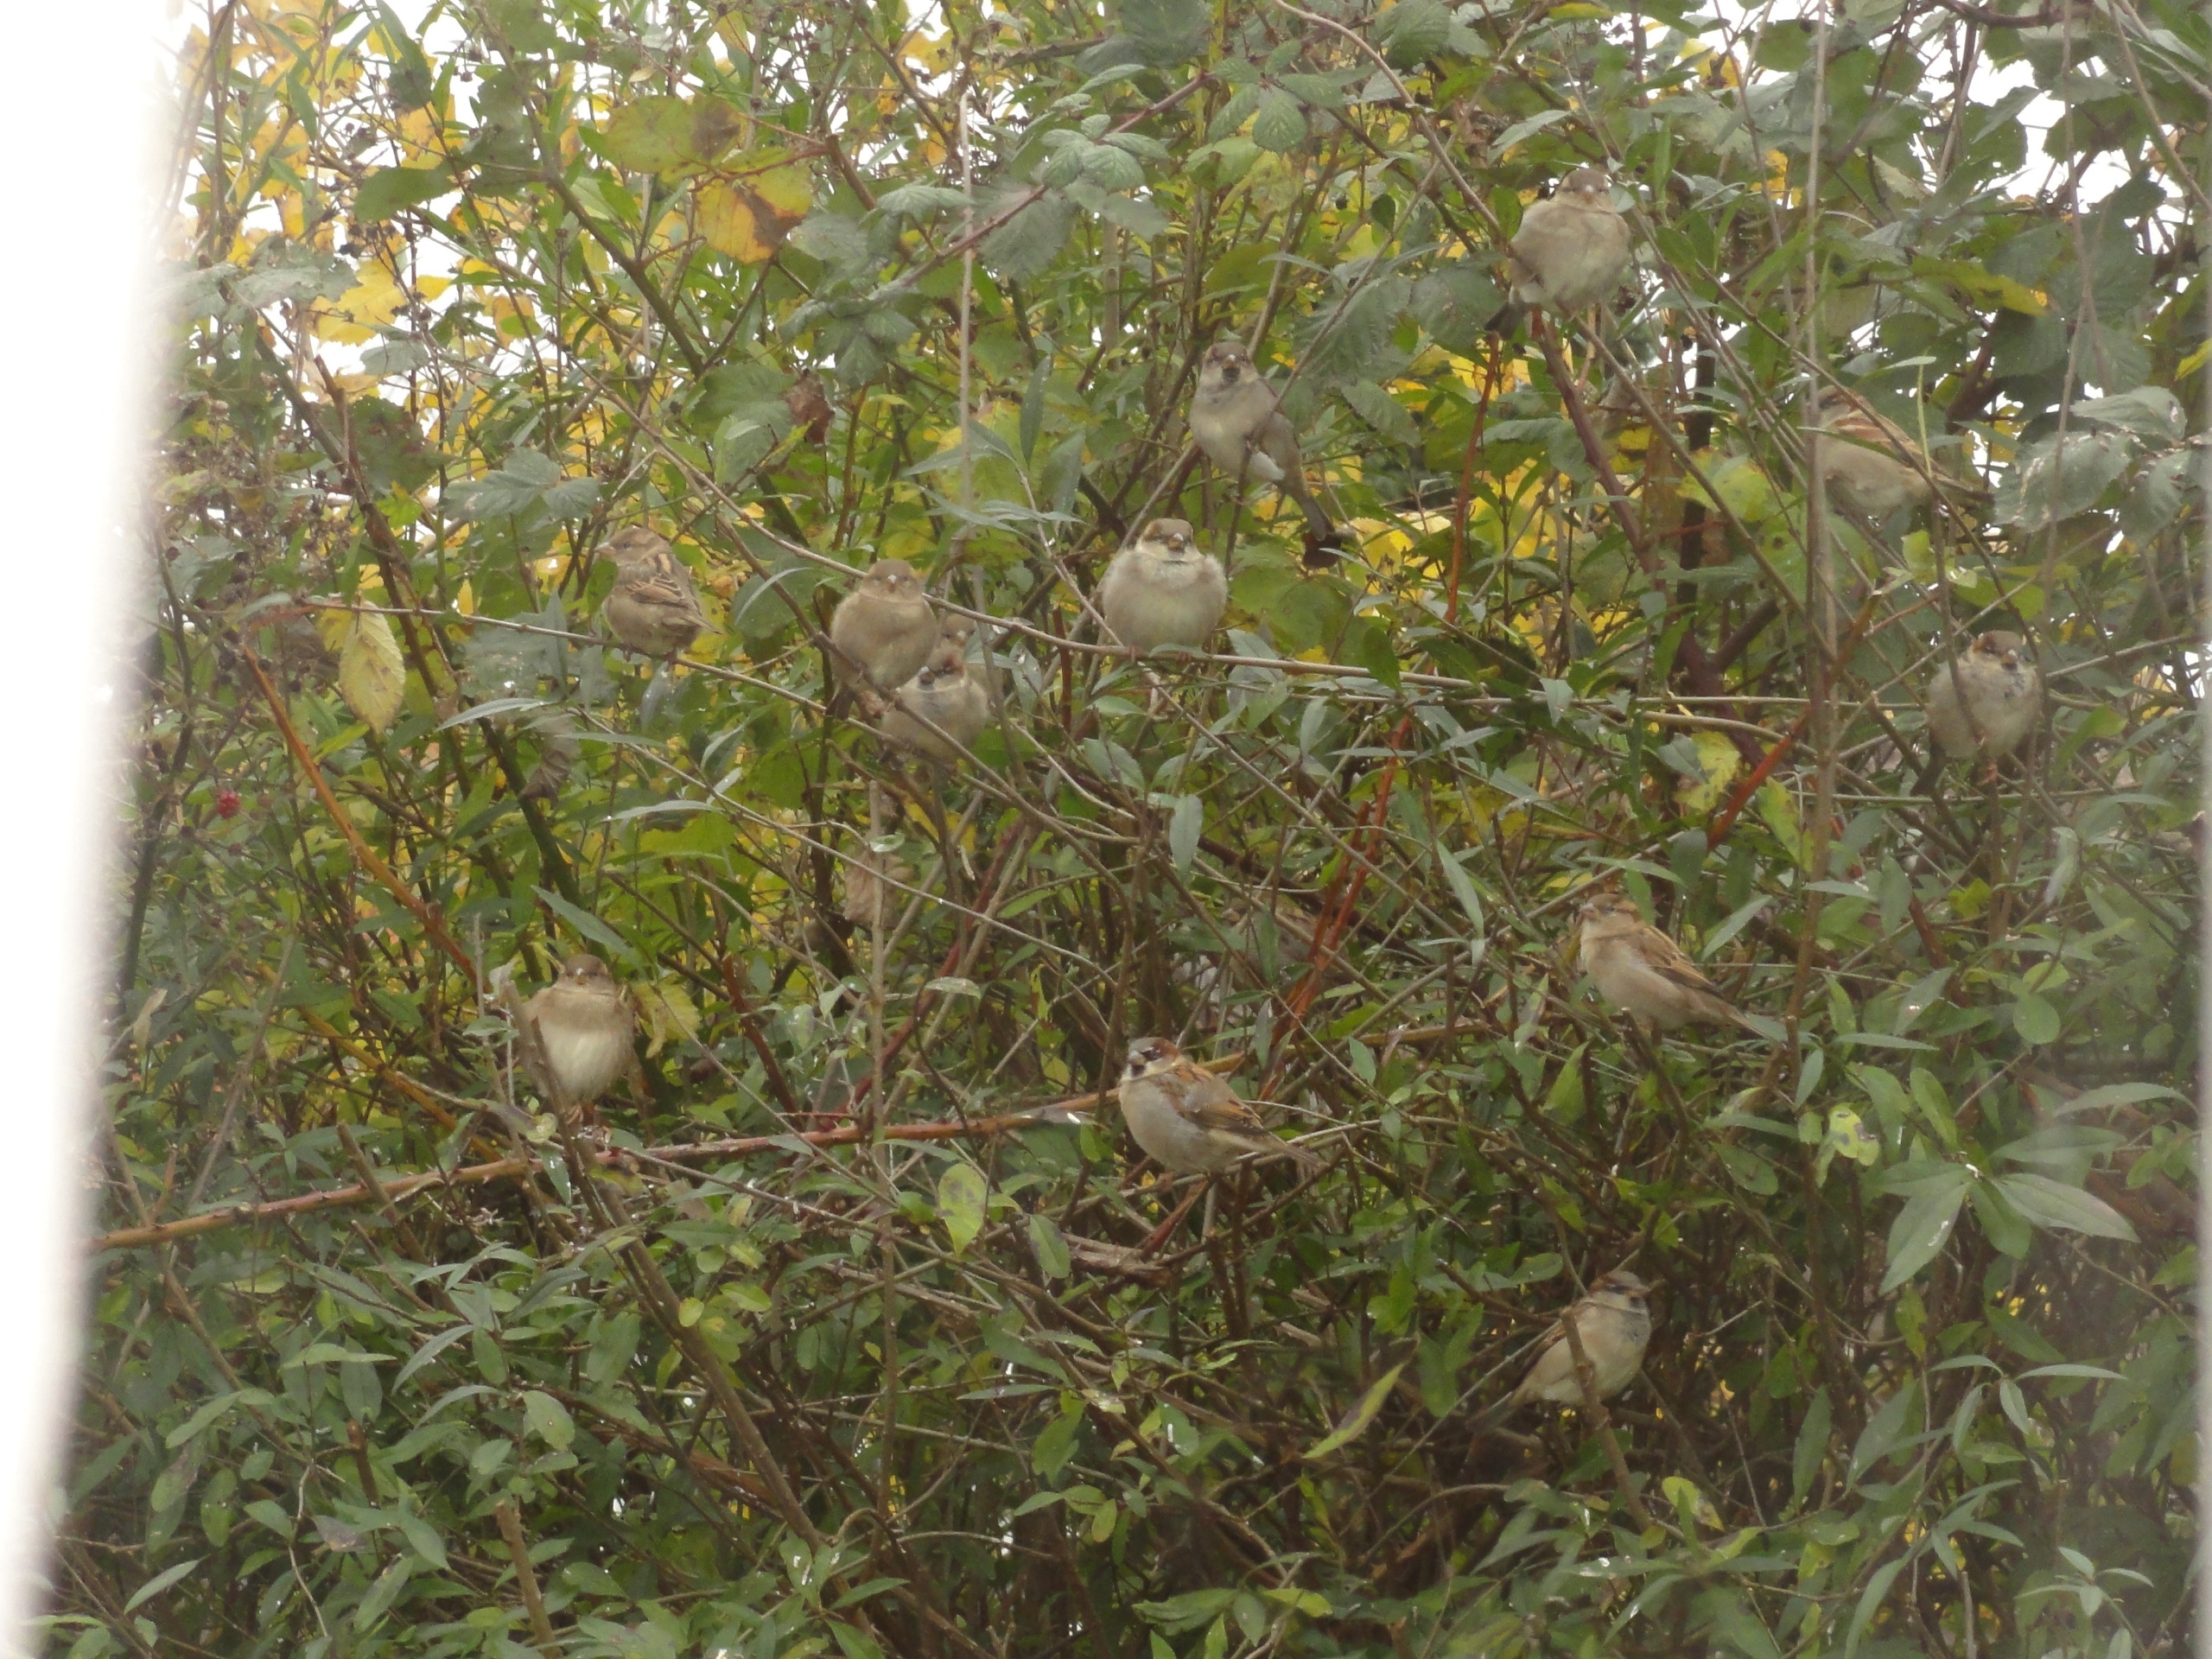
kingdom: Animalia
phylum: Chordata
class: Aves
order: Passeriformes
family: Passeridae
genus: Passer
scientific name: Passer domesticus
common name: Gråspurv
